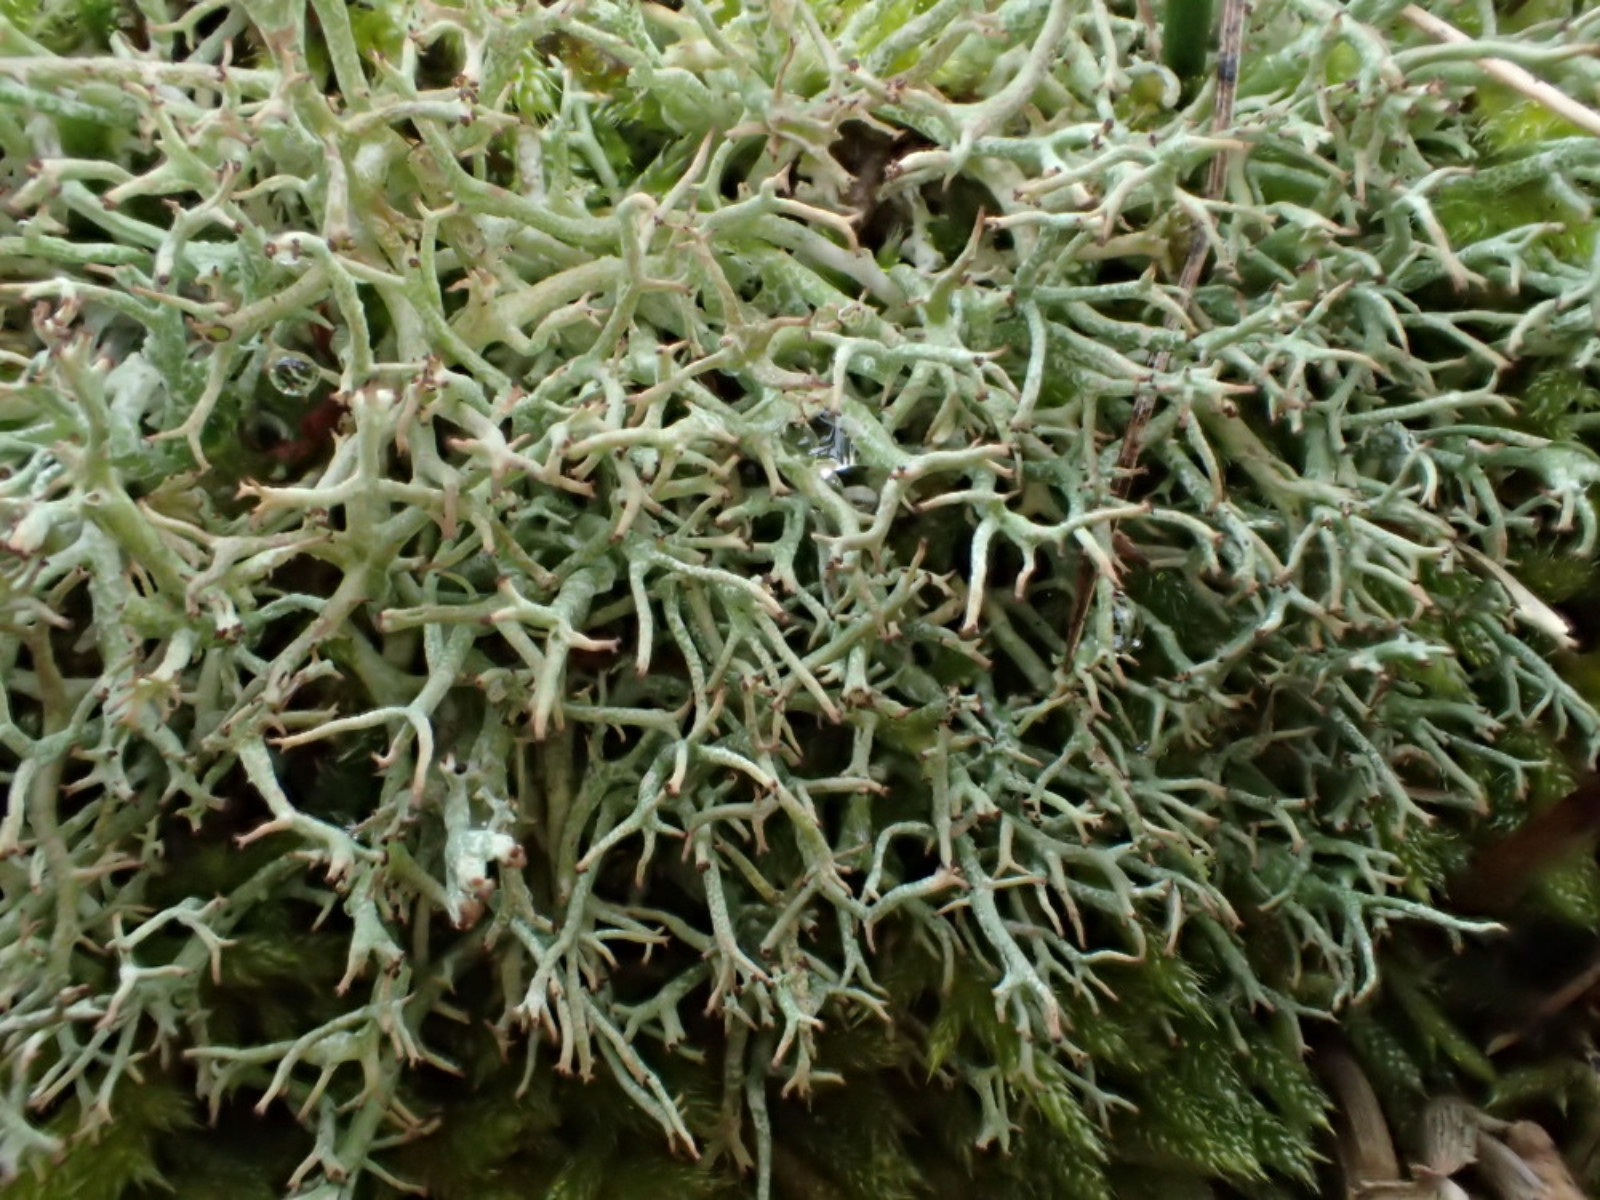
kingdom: Fungi
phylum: Ascomycota
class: Lecanoromycetes
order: Lecanorales
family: Cladoniaceae
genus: Cladonia
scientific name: Cladonia rangiformis
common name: spættet bægerlav
